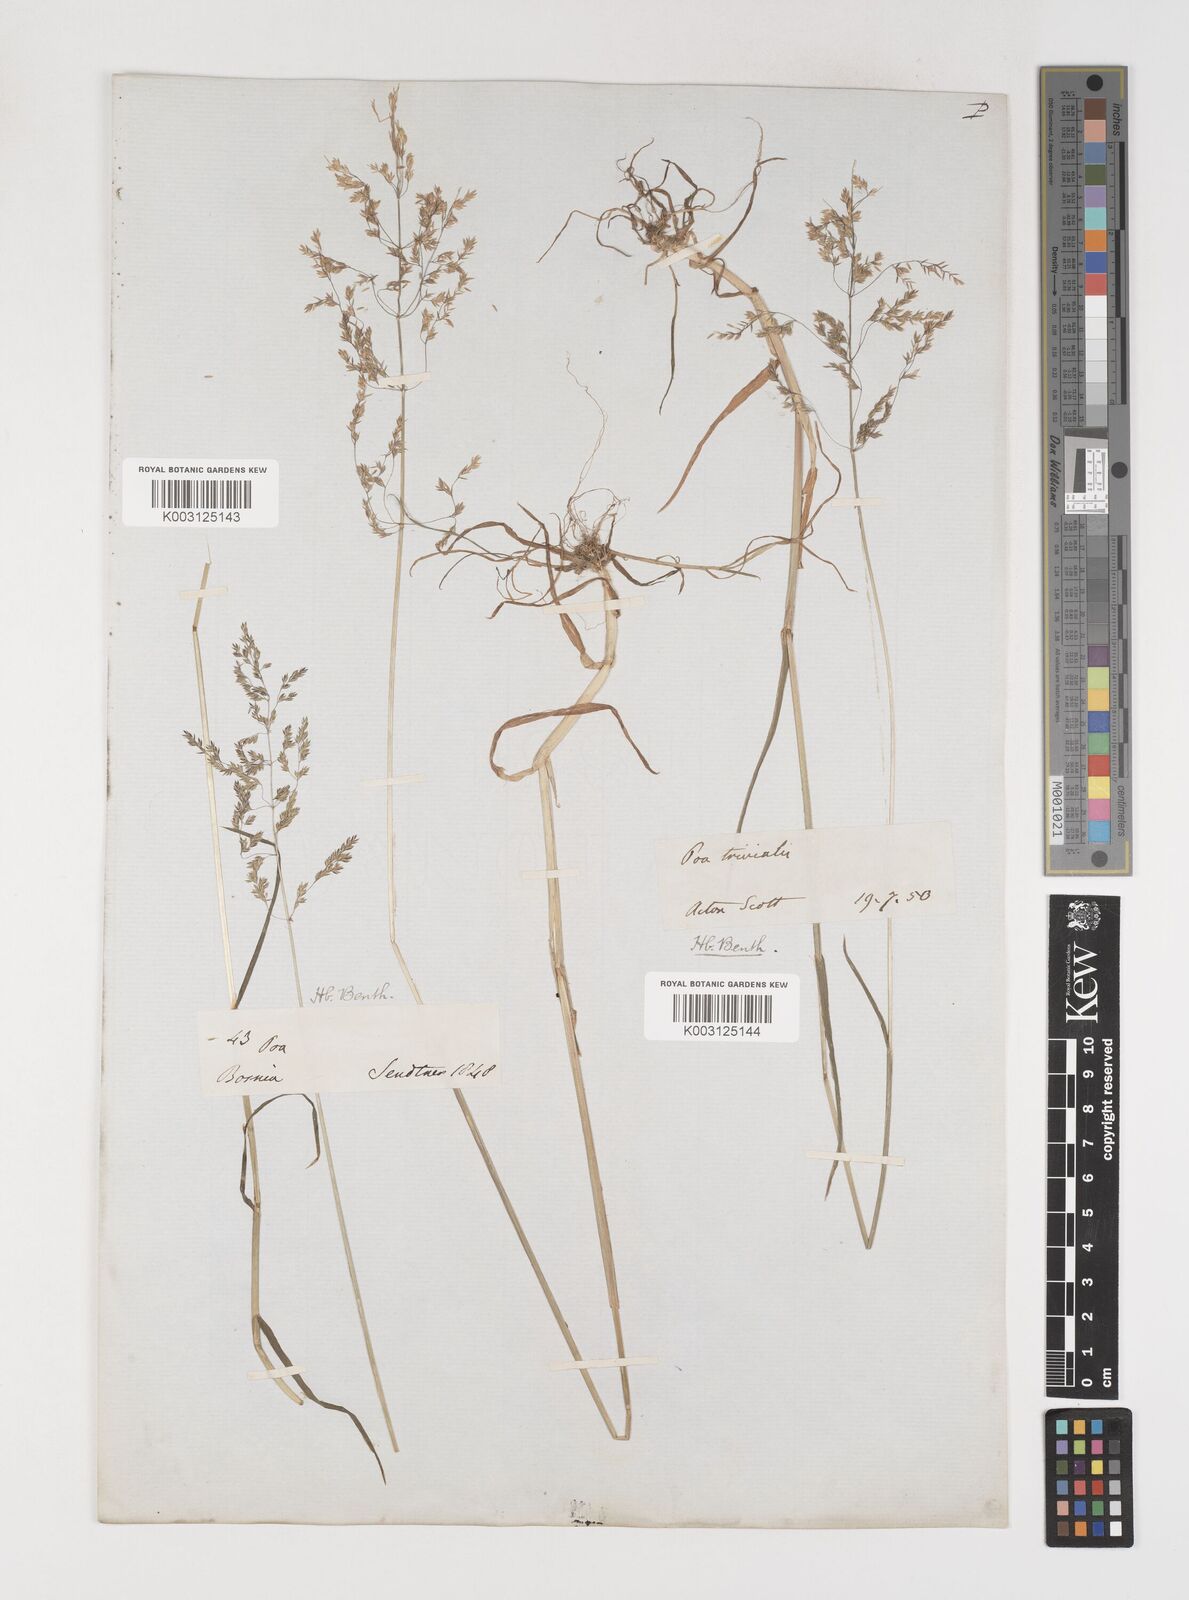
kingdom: Plantae
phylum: Tracheophyta
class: Liliopsida
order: Poales
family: Poaceae
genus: Poa
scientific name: Poa trivialis
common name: Rough bluegrass
